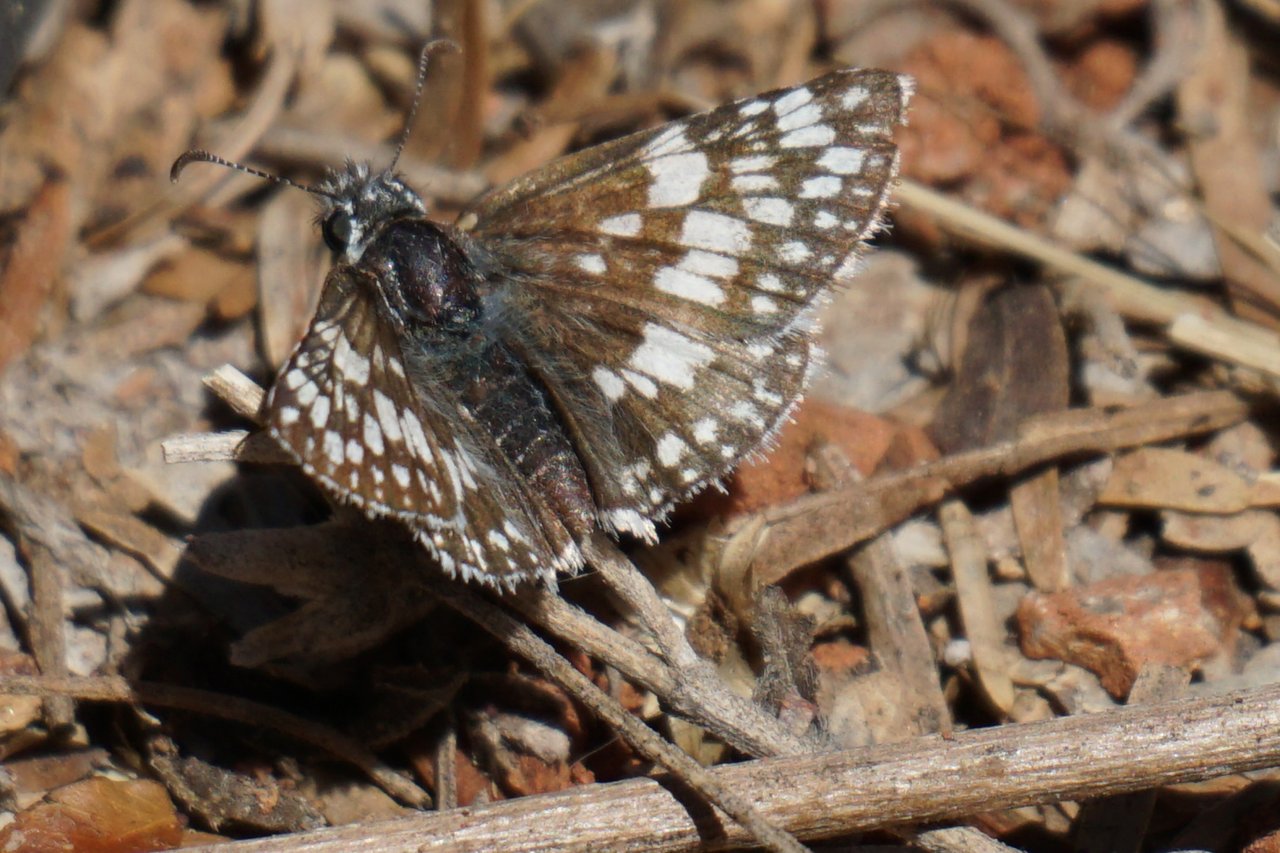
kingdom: Animalia
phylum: Arthropoda
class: Insecta
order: Lepidoptera
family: Hesperiidae
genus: Pyrgus
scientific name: Pyrgus communis
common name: Common Checkered-Skipper
